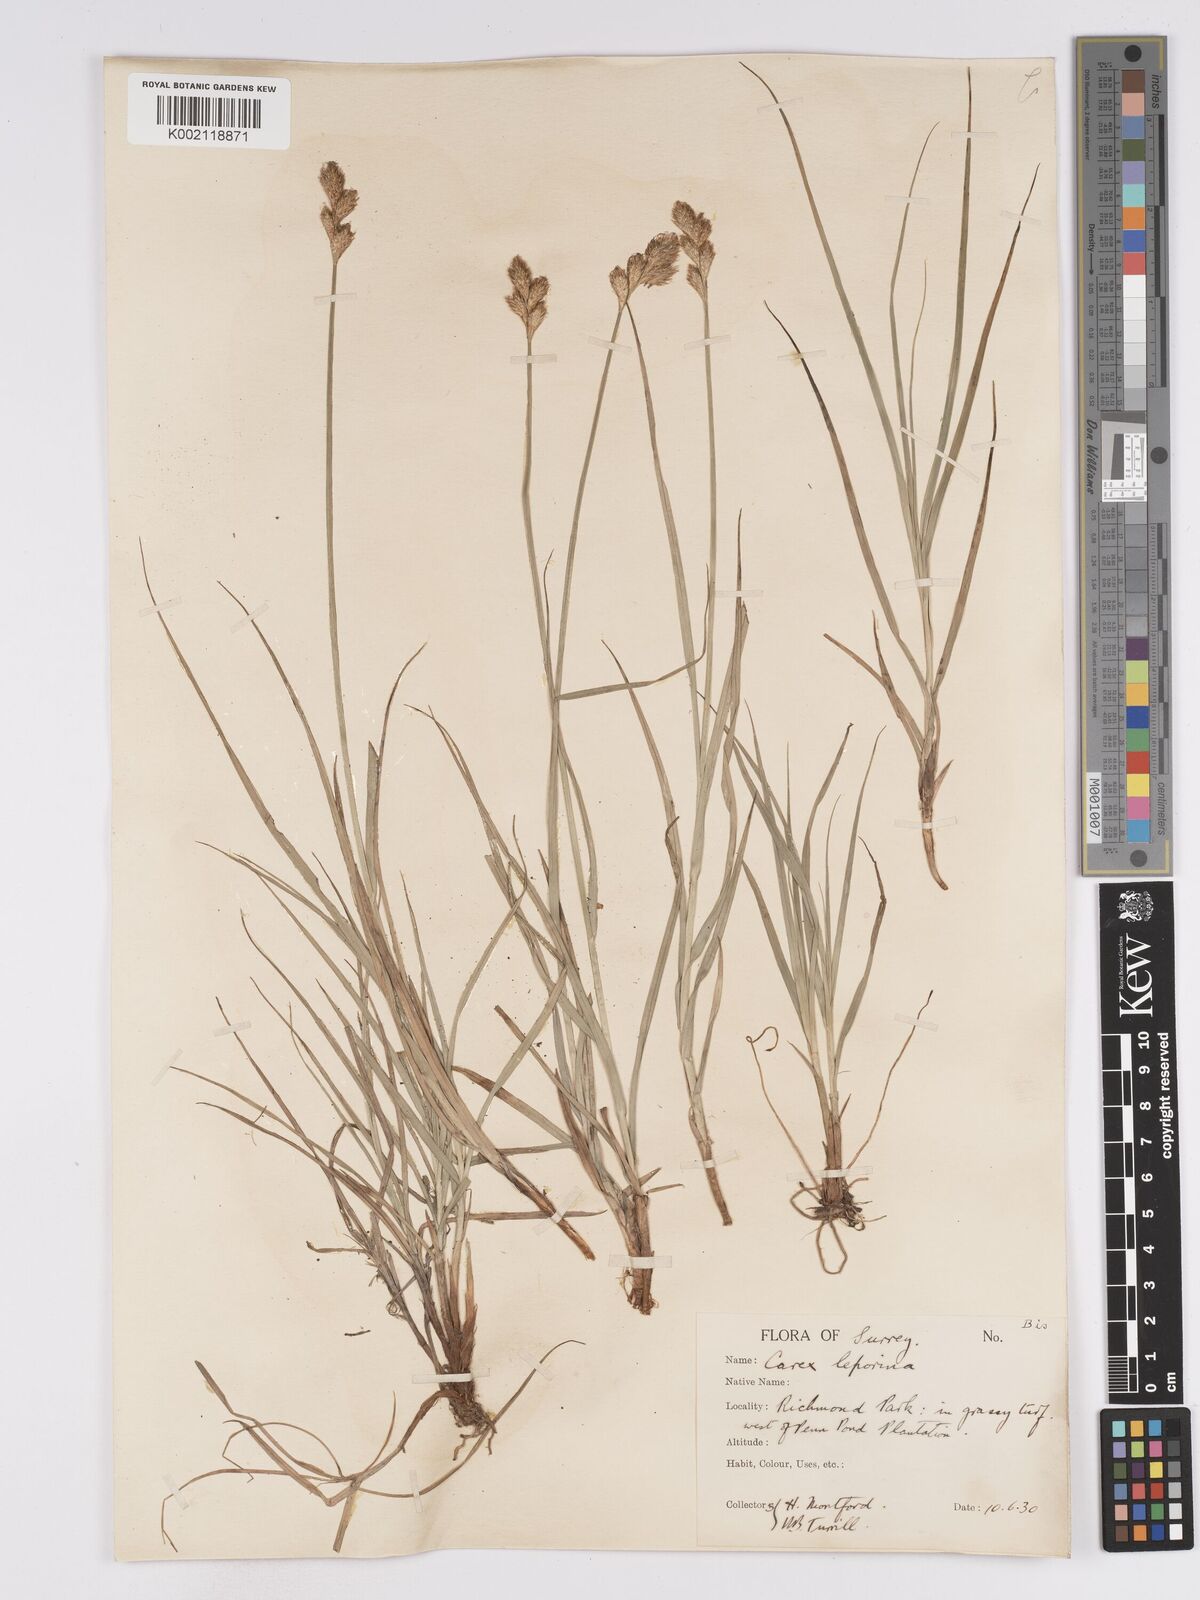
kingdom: Plantae
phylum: Tracheophyta
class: Liliopsida
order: Poales
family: Cyperaceae
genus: Carex
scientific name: Carex leporina
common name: Oval sedge
